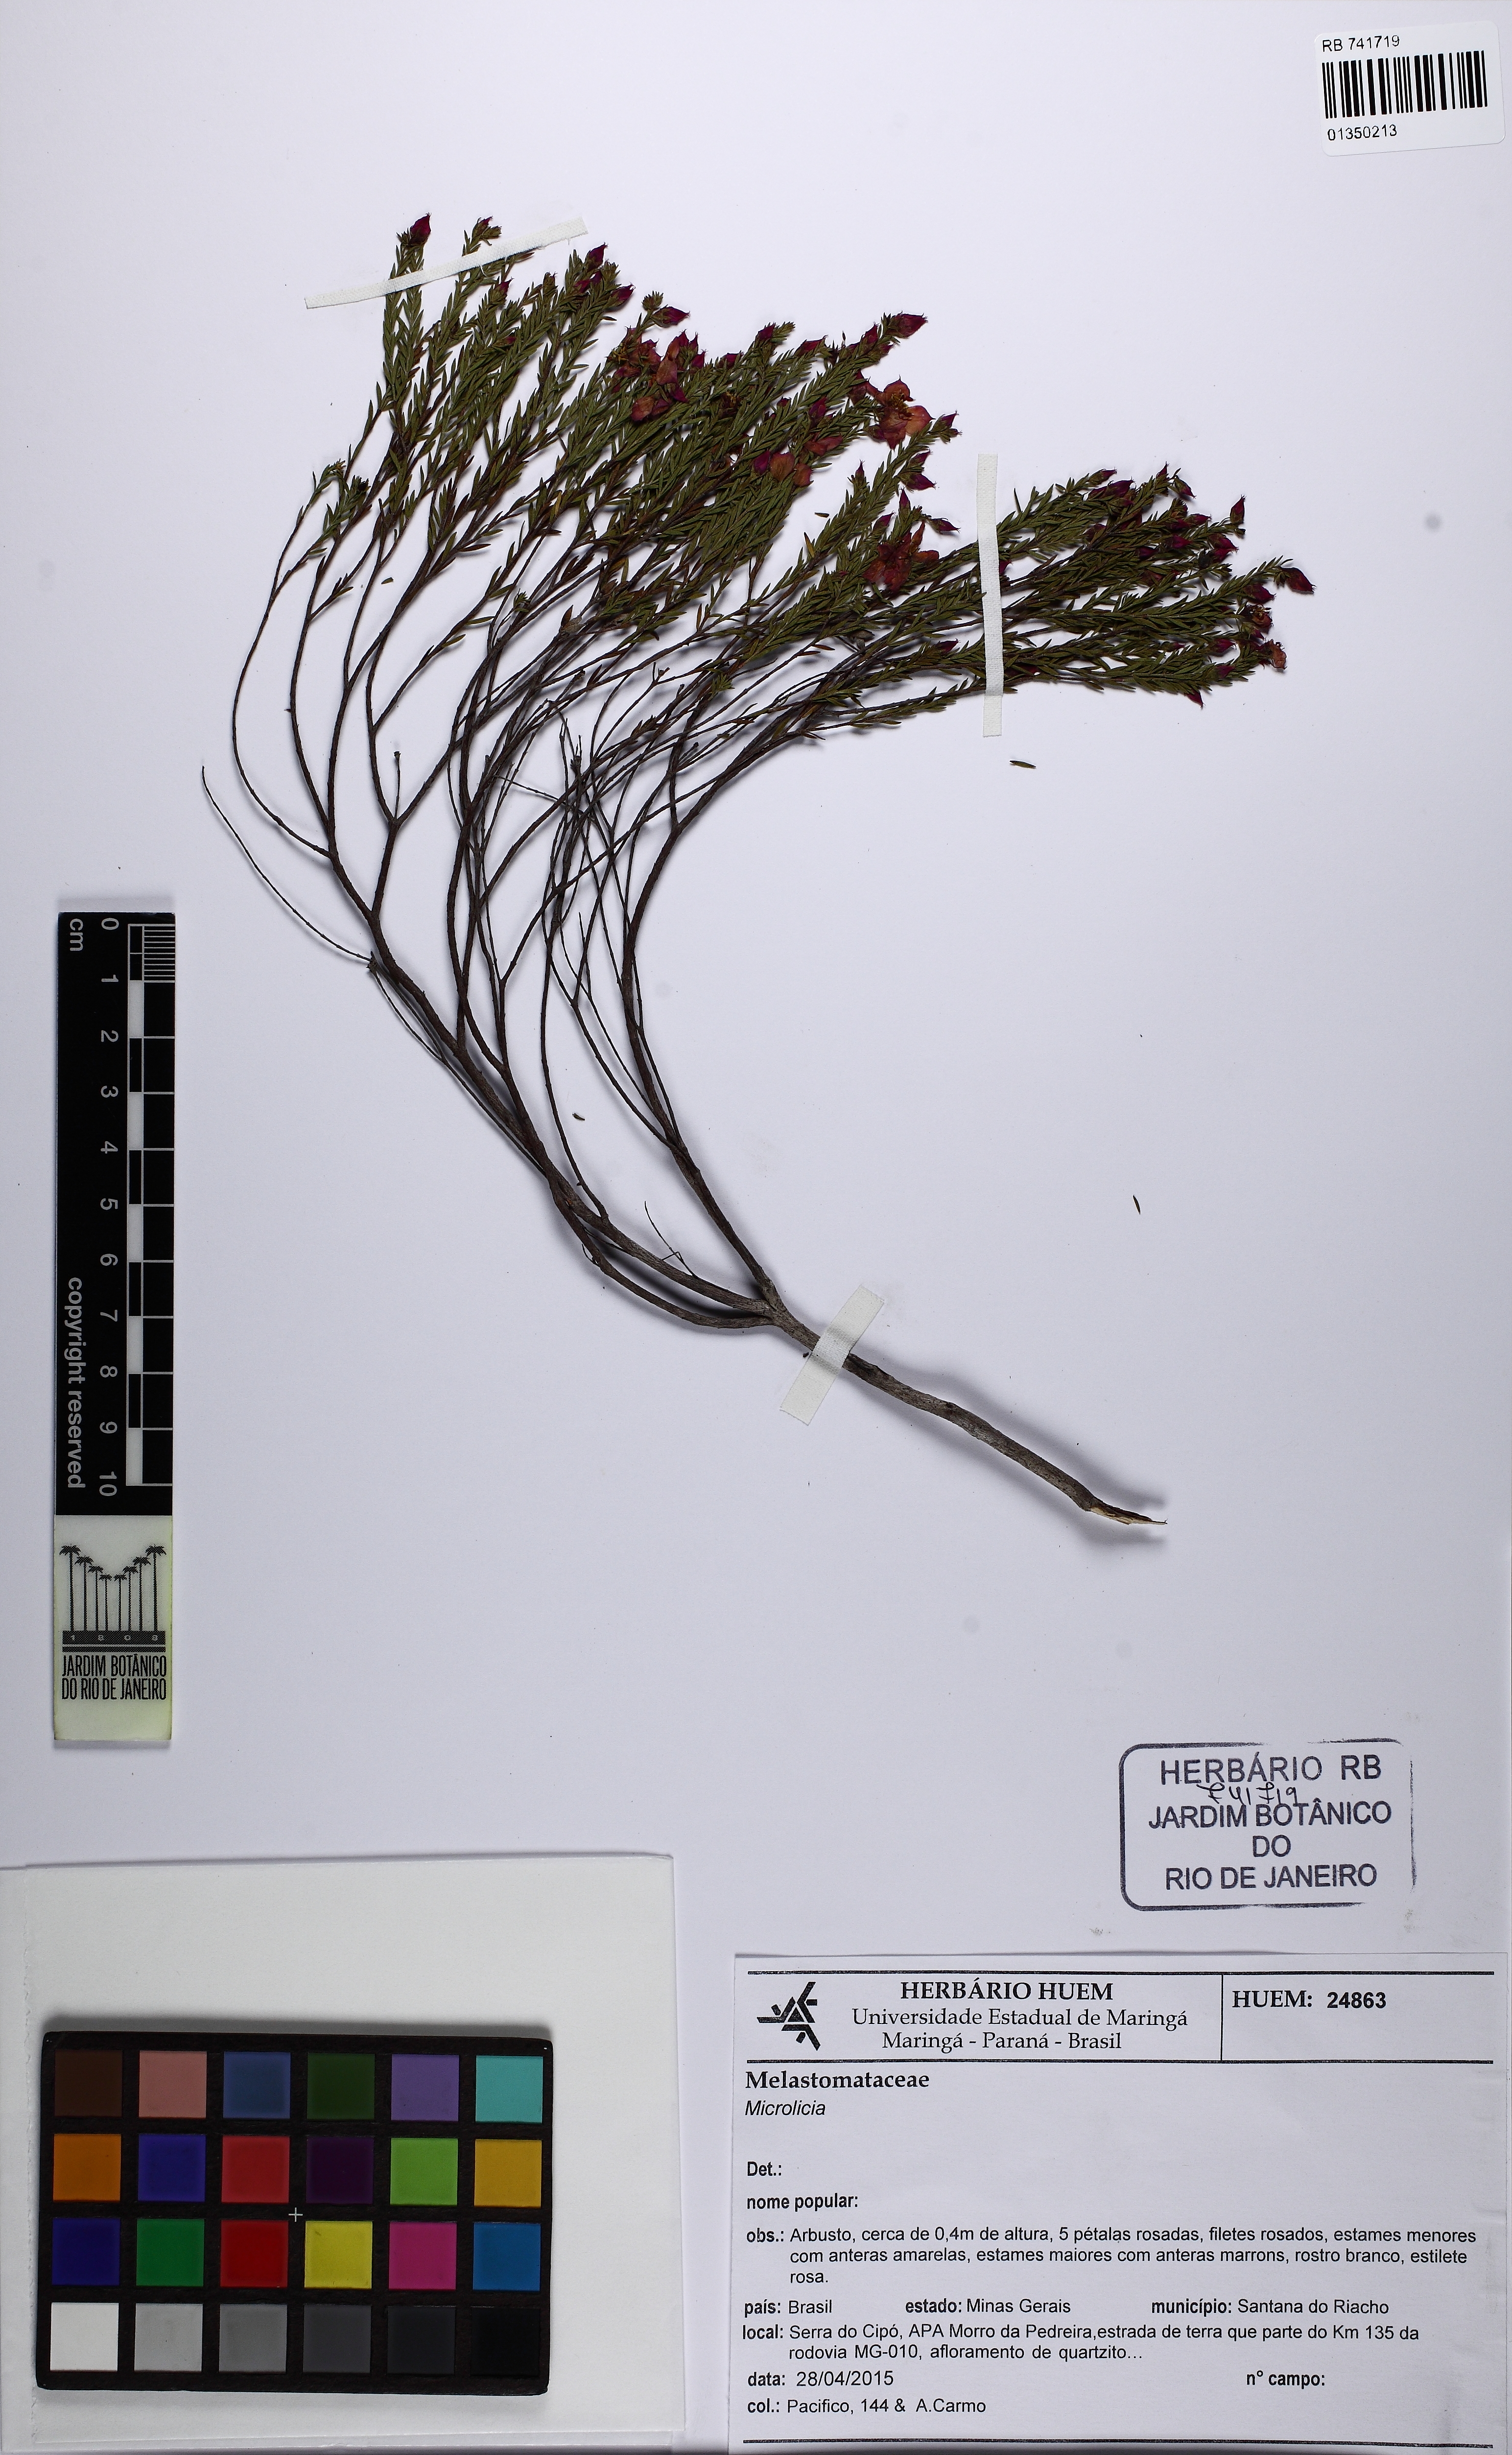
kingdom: Plantae
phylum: Tracheophyta
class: Magnoliopsida
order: Myrtales
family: Melastomataceae
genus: Microlicia
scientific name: Microlicia rugosa
